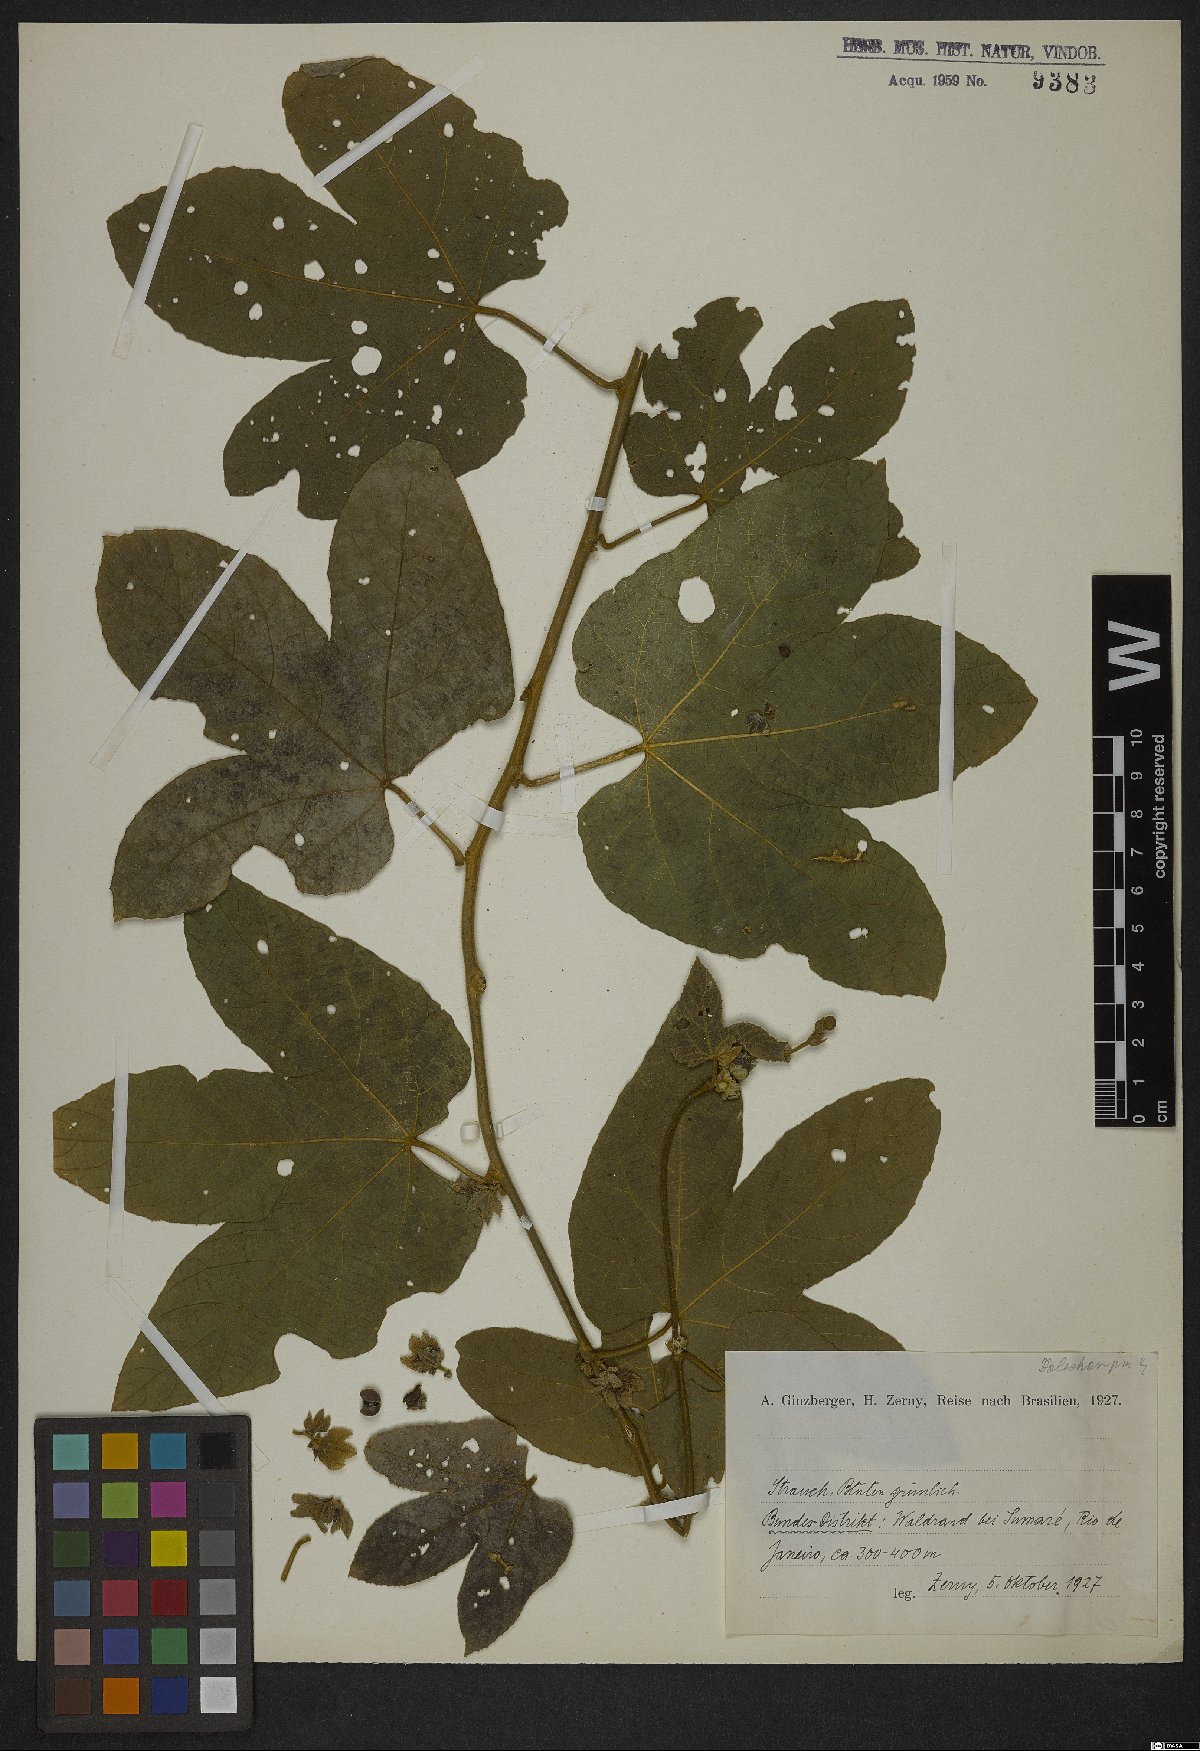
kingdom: Plantae
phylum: Tracheophyta
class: Magnoliopsida
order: Malpighiales
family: Euphorbiaceae
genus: Jatropha
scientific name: Jatropha
